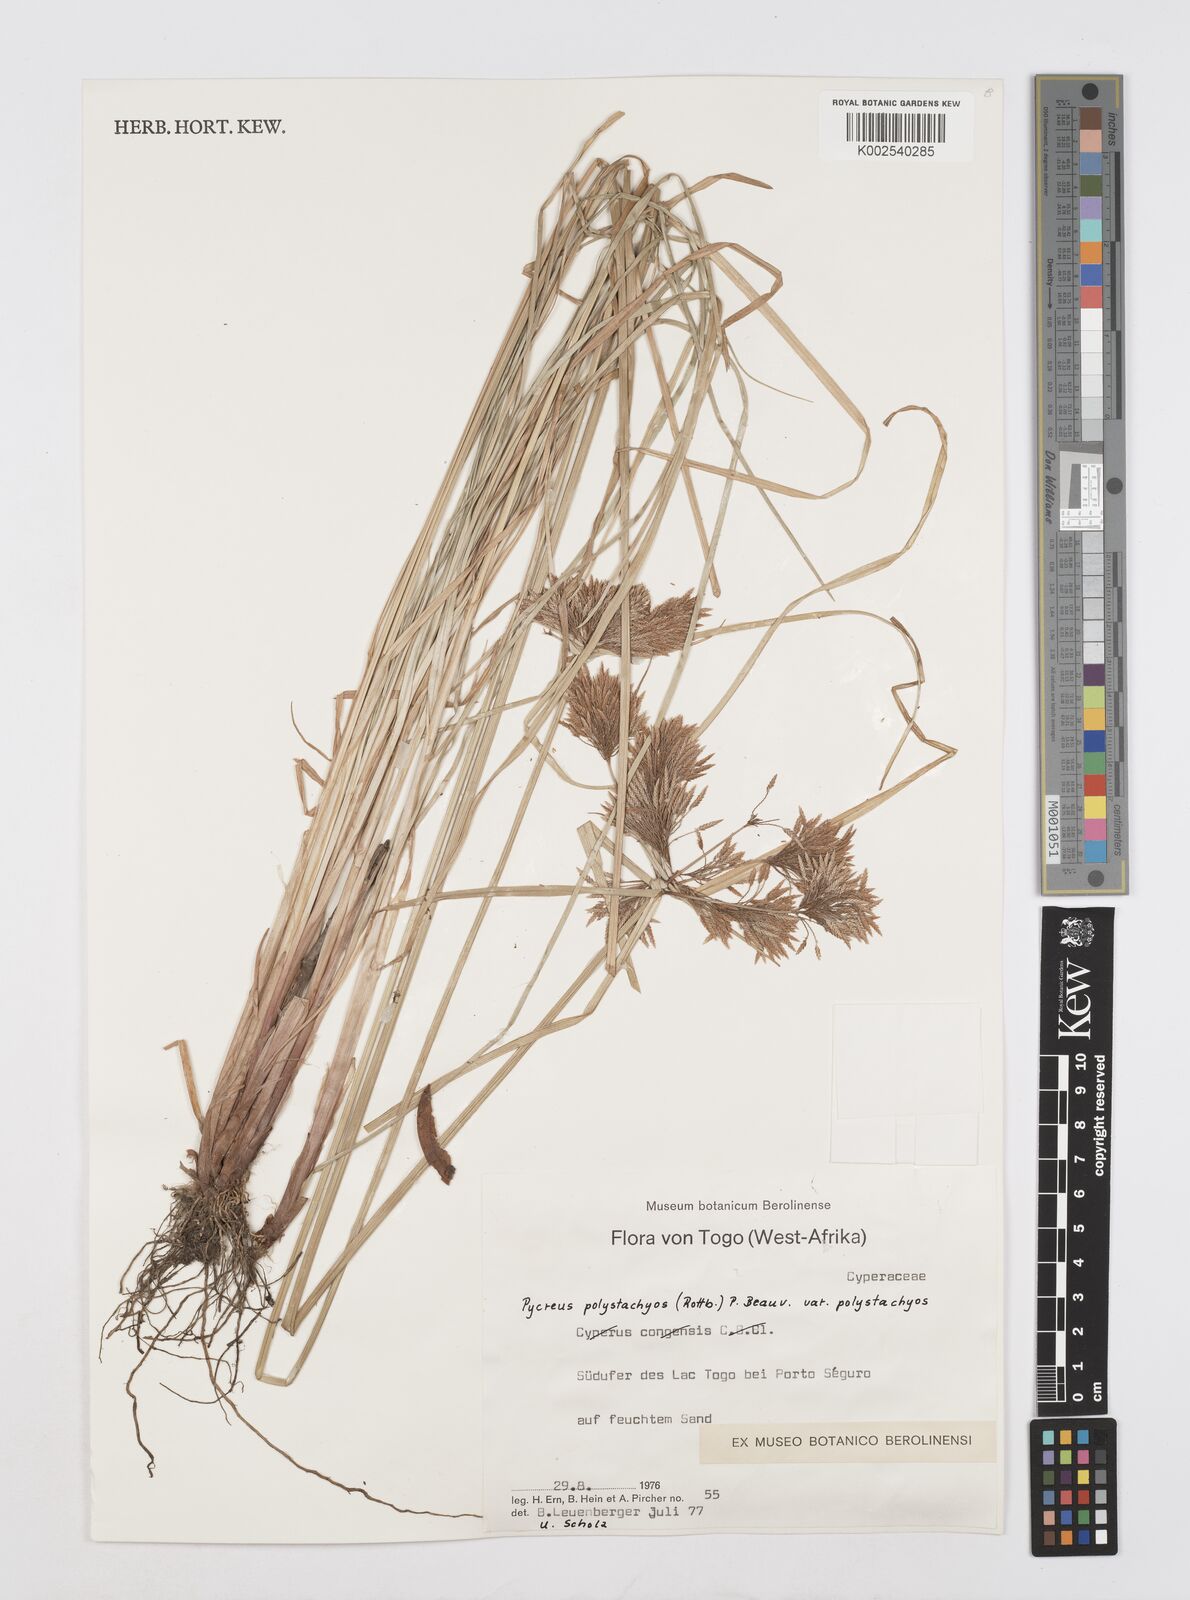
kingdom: Plantae
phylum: Tracheophyta
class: Liliopsida
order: Poales
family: Cyperaceae
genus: Cyperus
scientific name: Cyperus polystachyos
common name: Bunchy flat sedge
